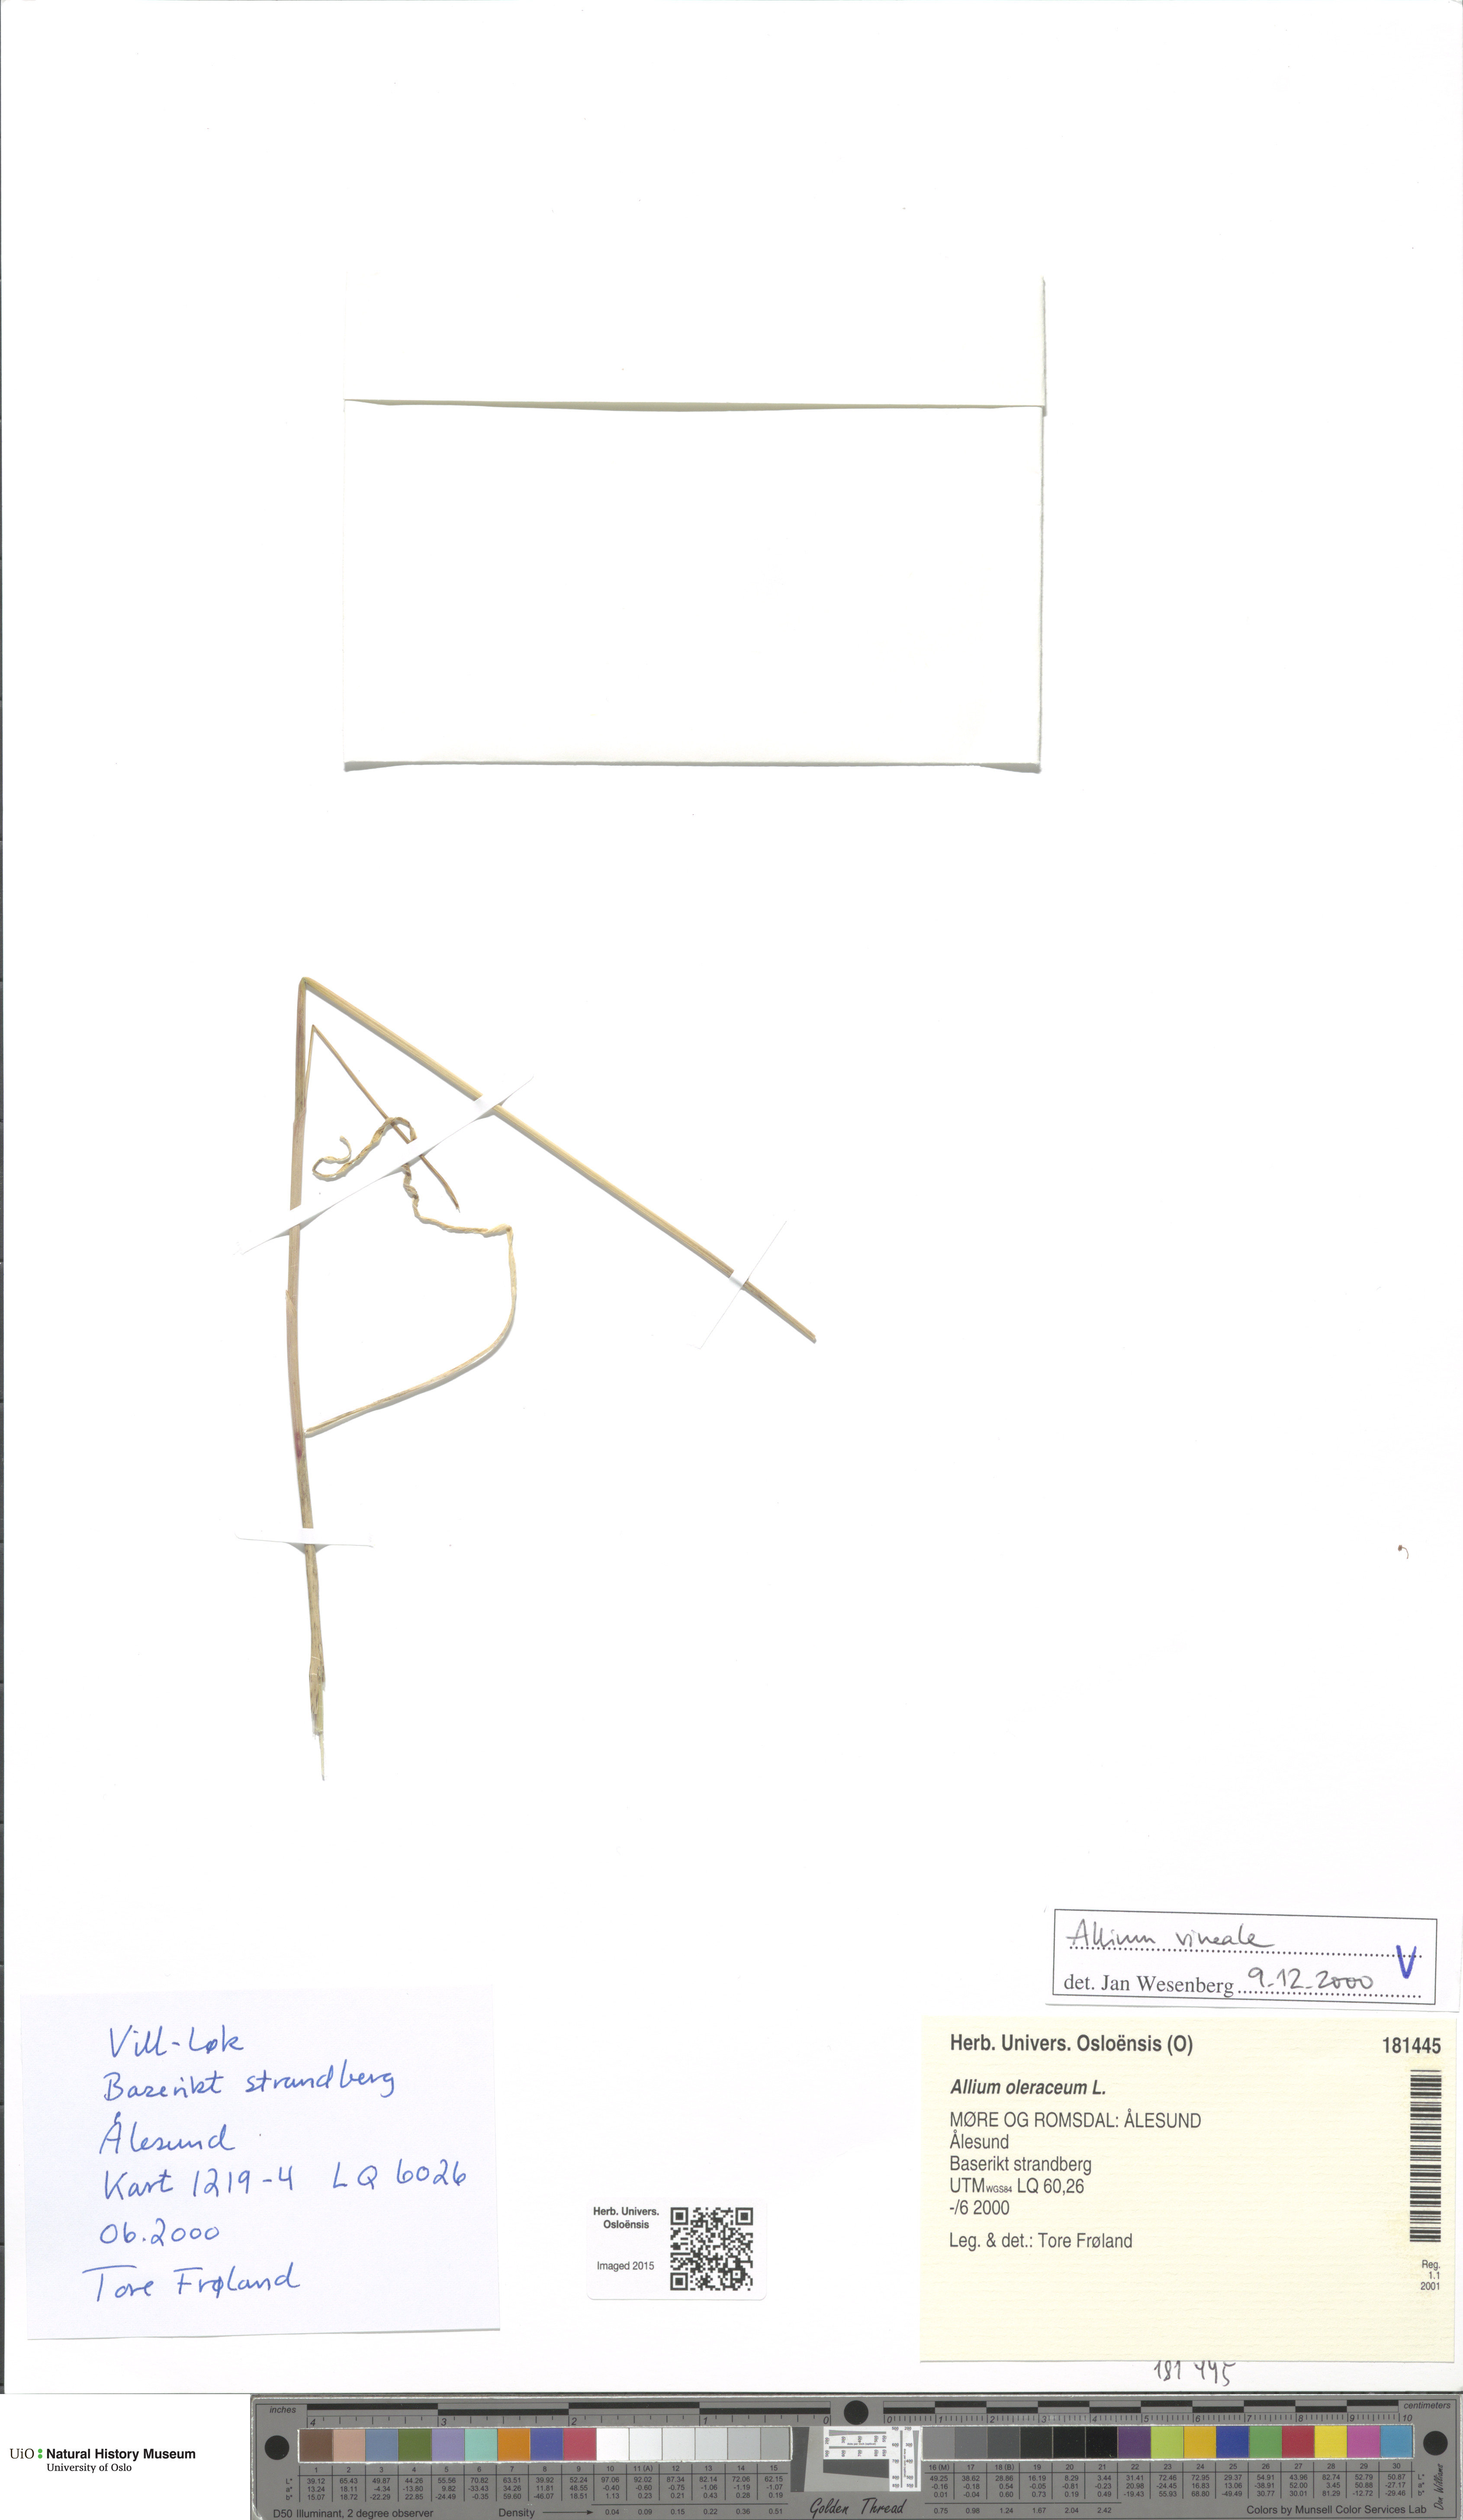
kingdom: Plantae
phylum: Tracheophyta
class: Liliopsida
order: Asparagales
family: Amaryllidaceae
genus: Allium
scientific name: Allium vineale
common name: Crow garlic
